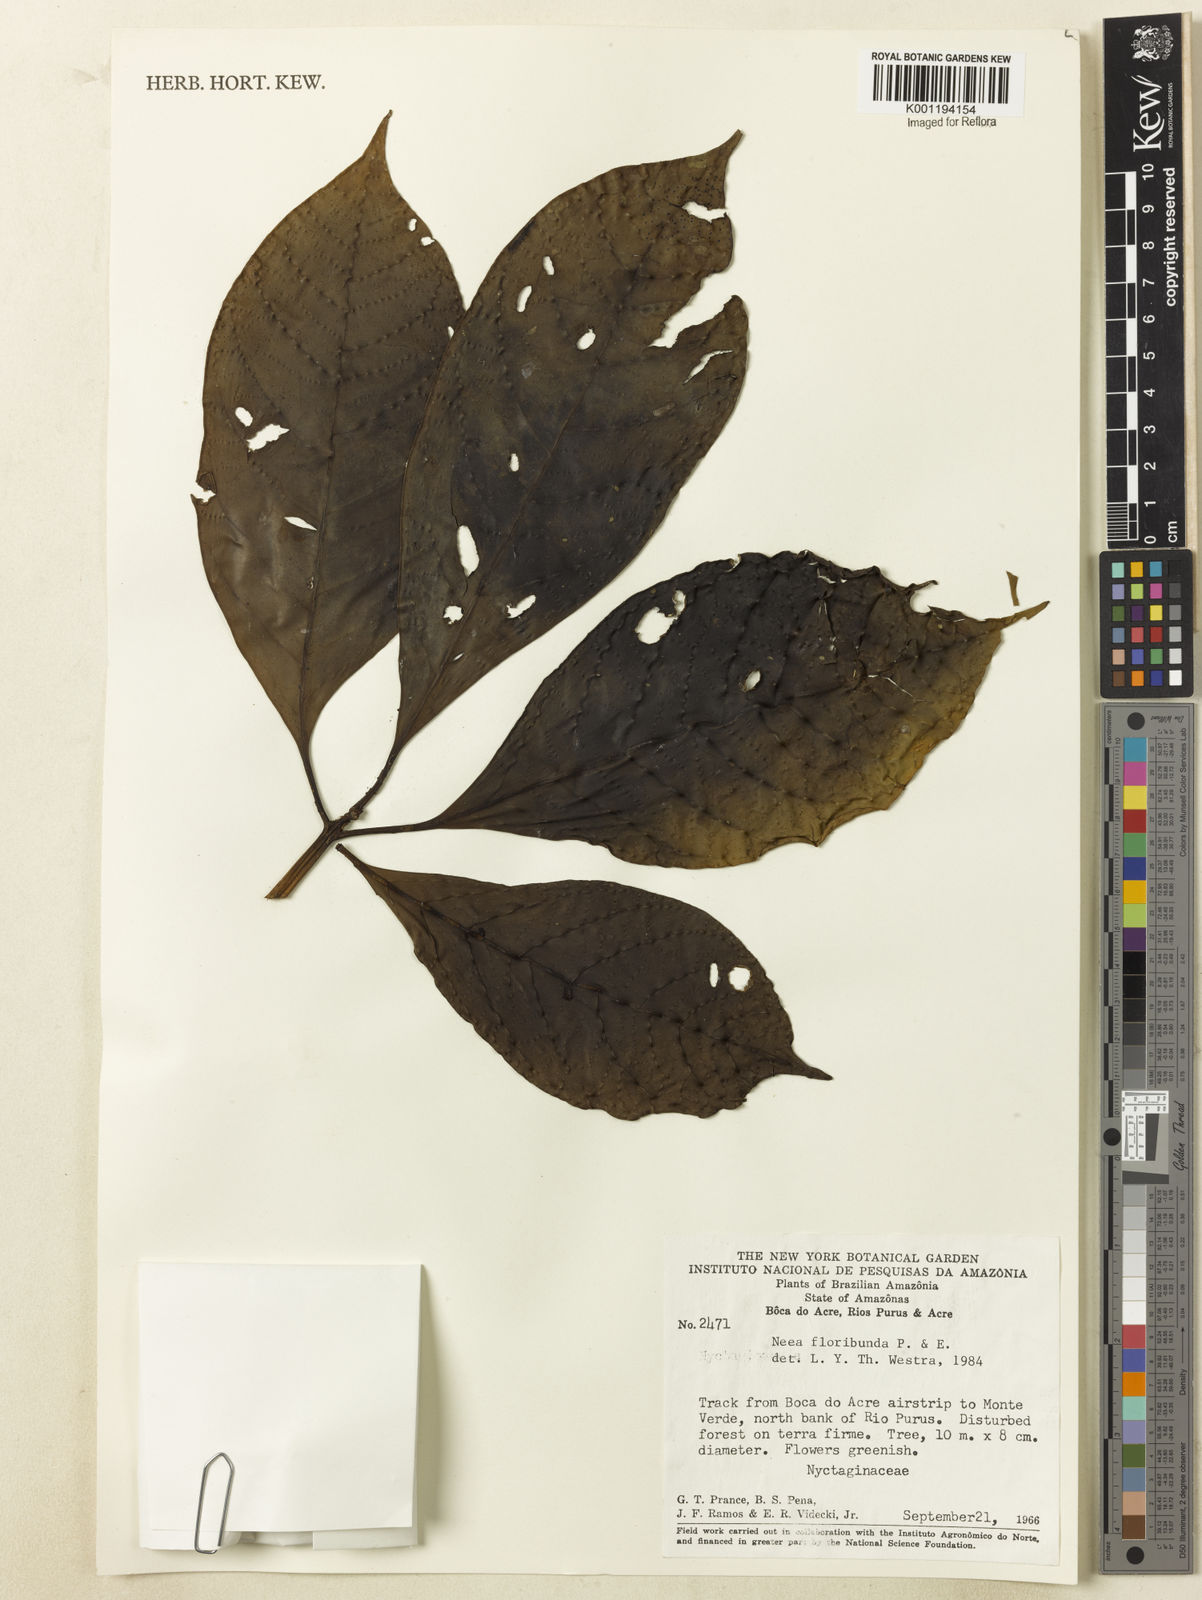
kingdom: Plantae
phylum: Tracheophyta
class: Magnoliopsida
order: Caryophyllales
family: Nyctaginaceae
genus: Neea
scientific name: Neea floribunda
